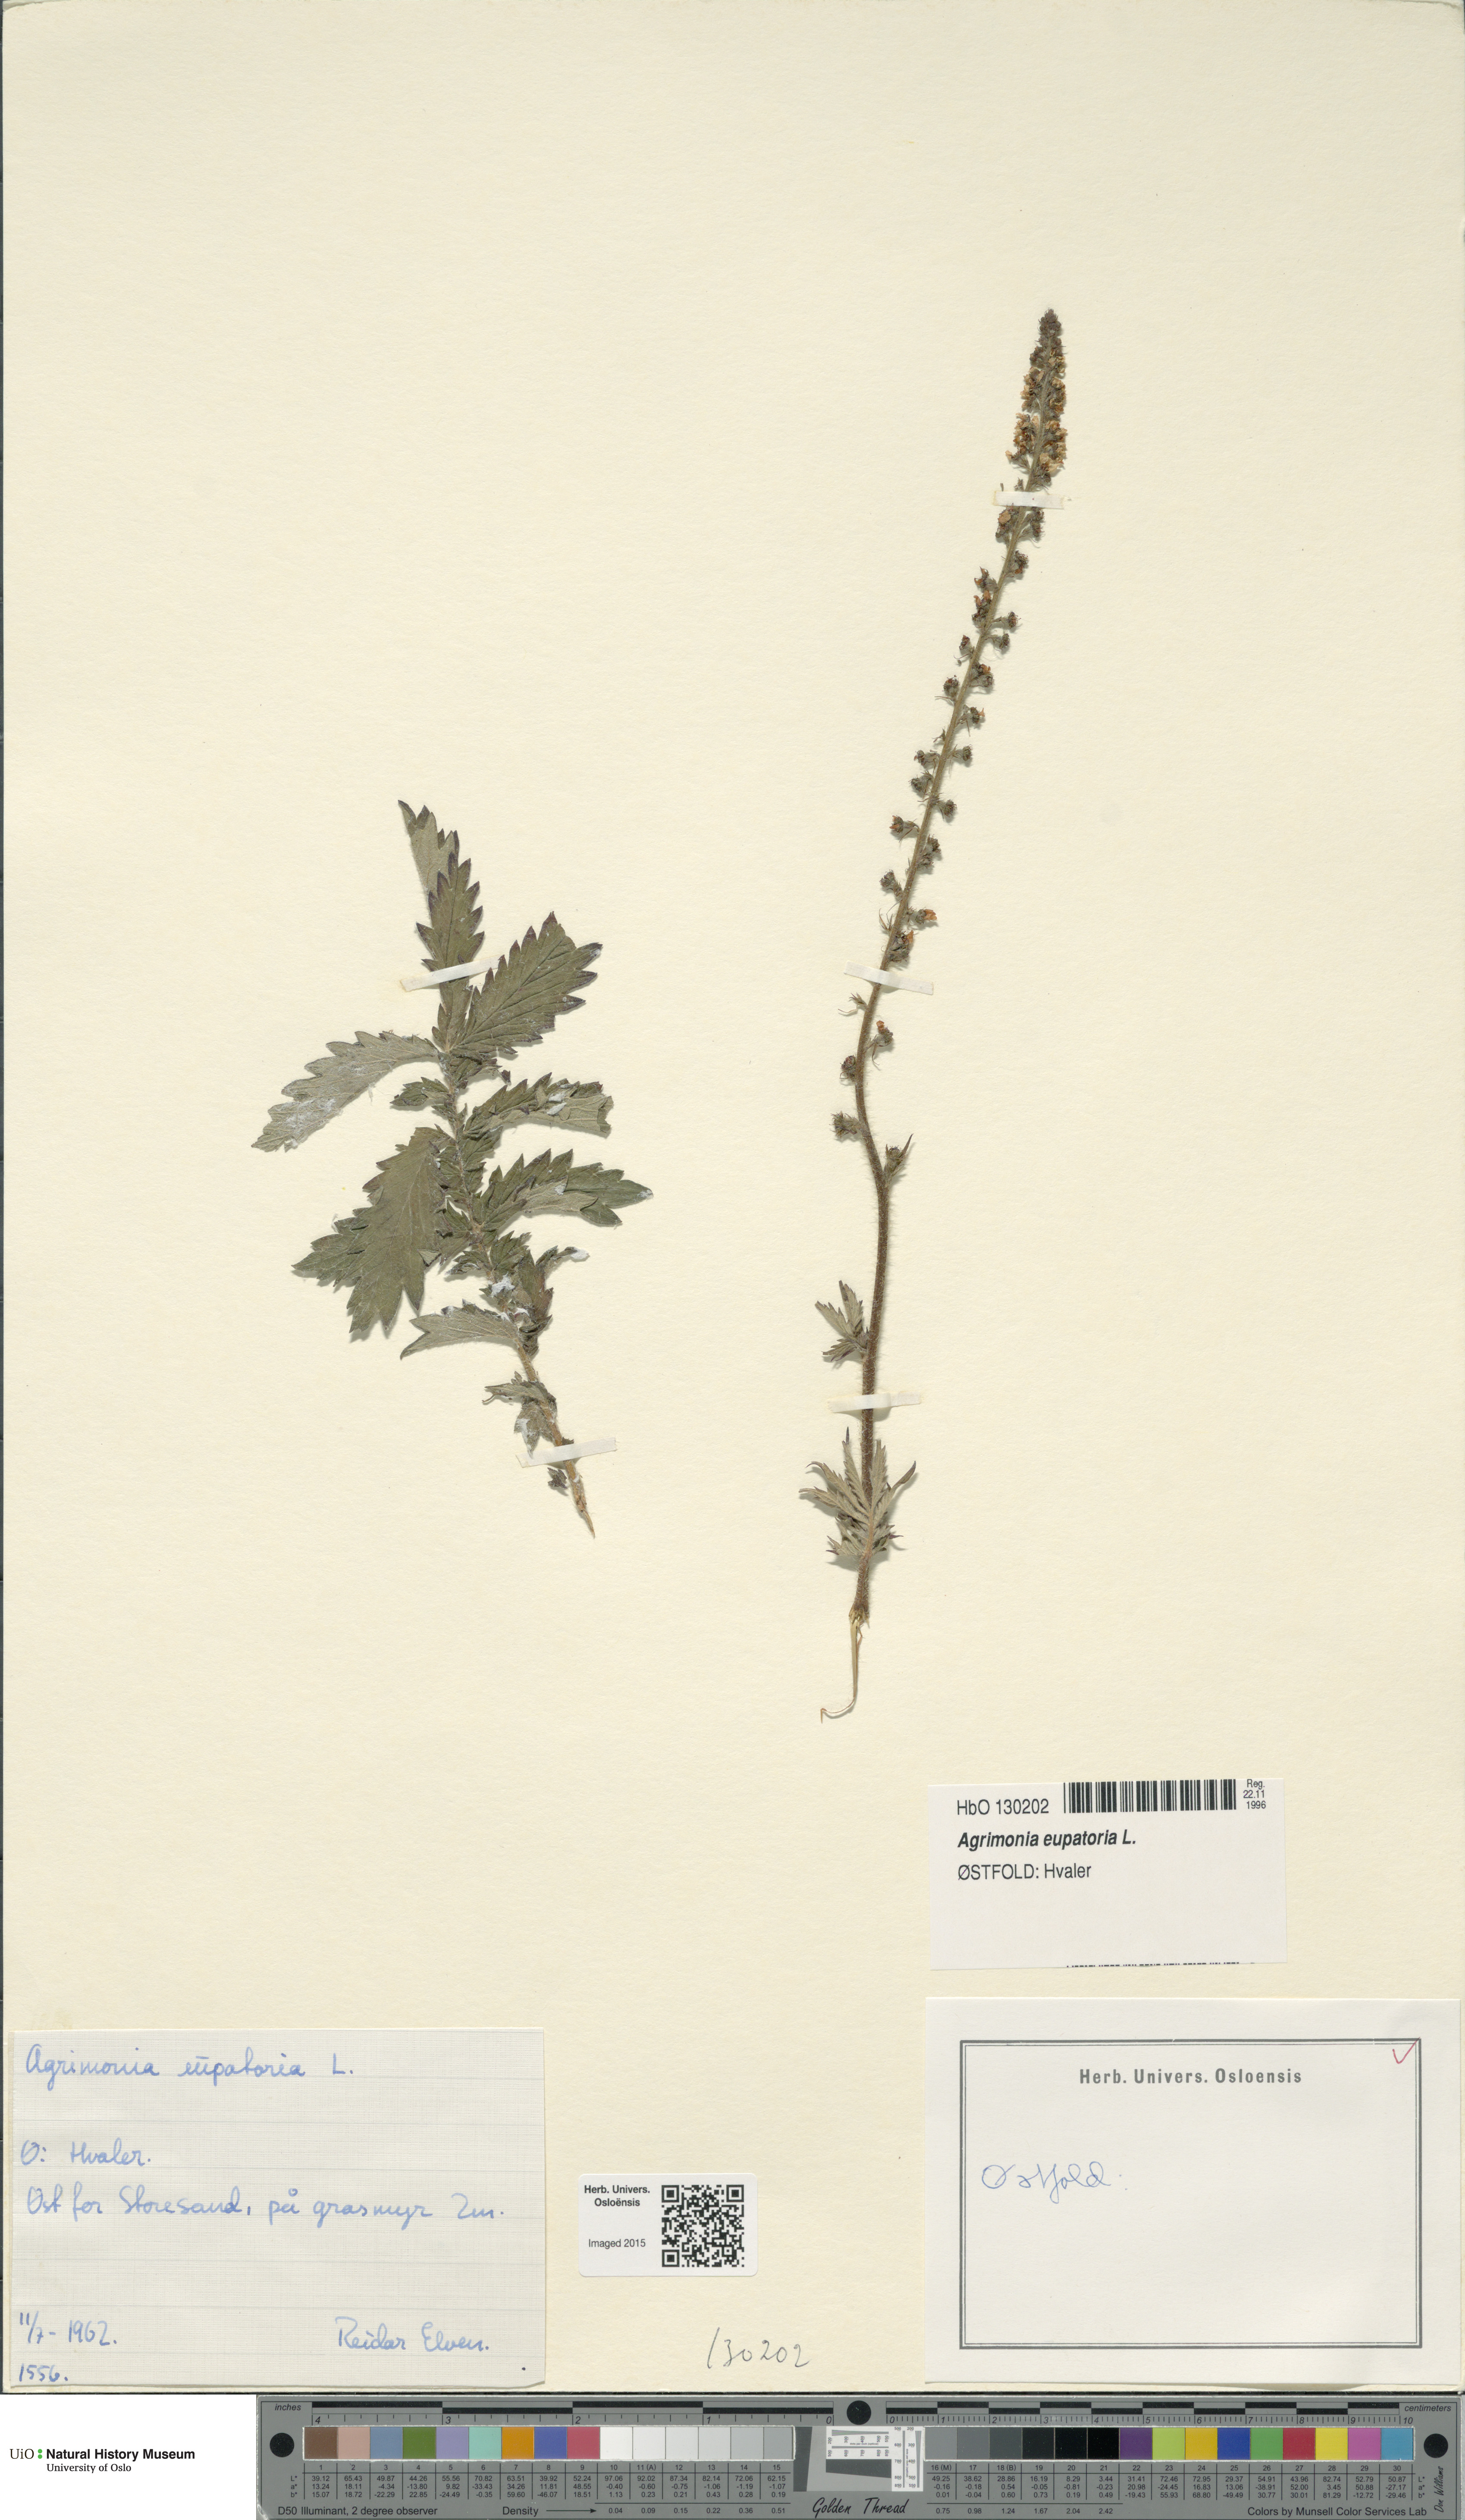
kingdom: Plantae
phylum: Tracheophyta
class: Magnoliopsida
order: Rosales
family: Rosaceae
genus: Agrimonia
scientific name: Agrimonia eupatoria
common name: Agrimony
